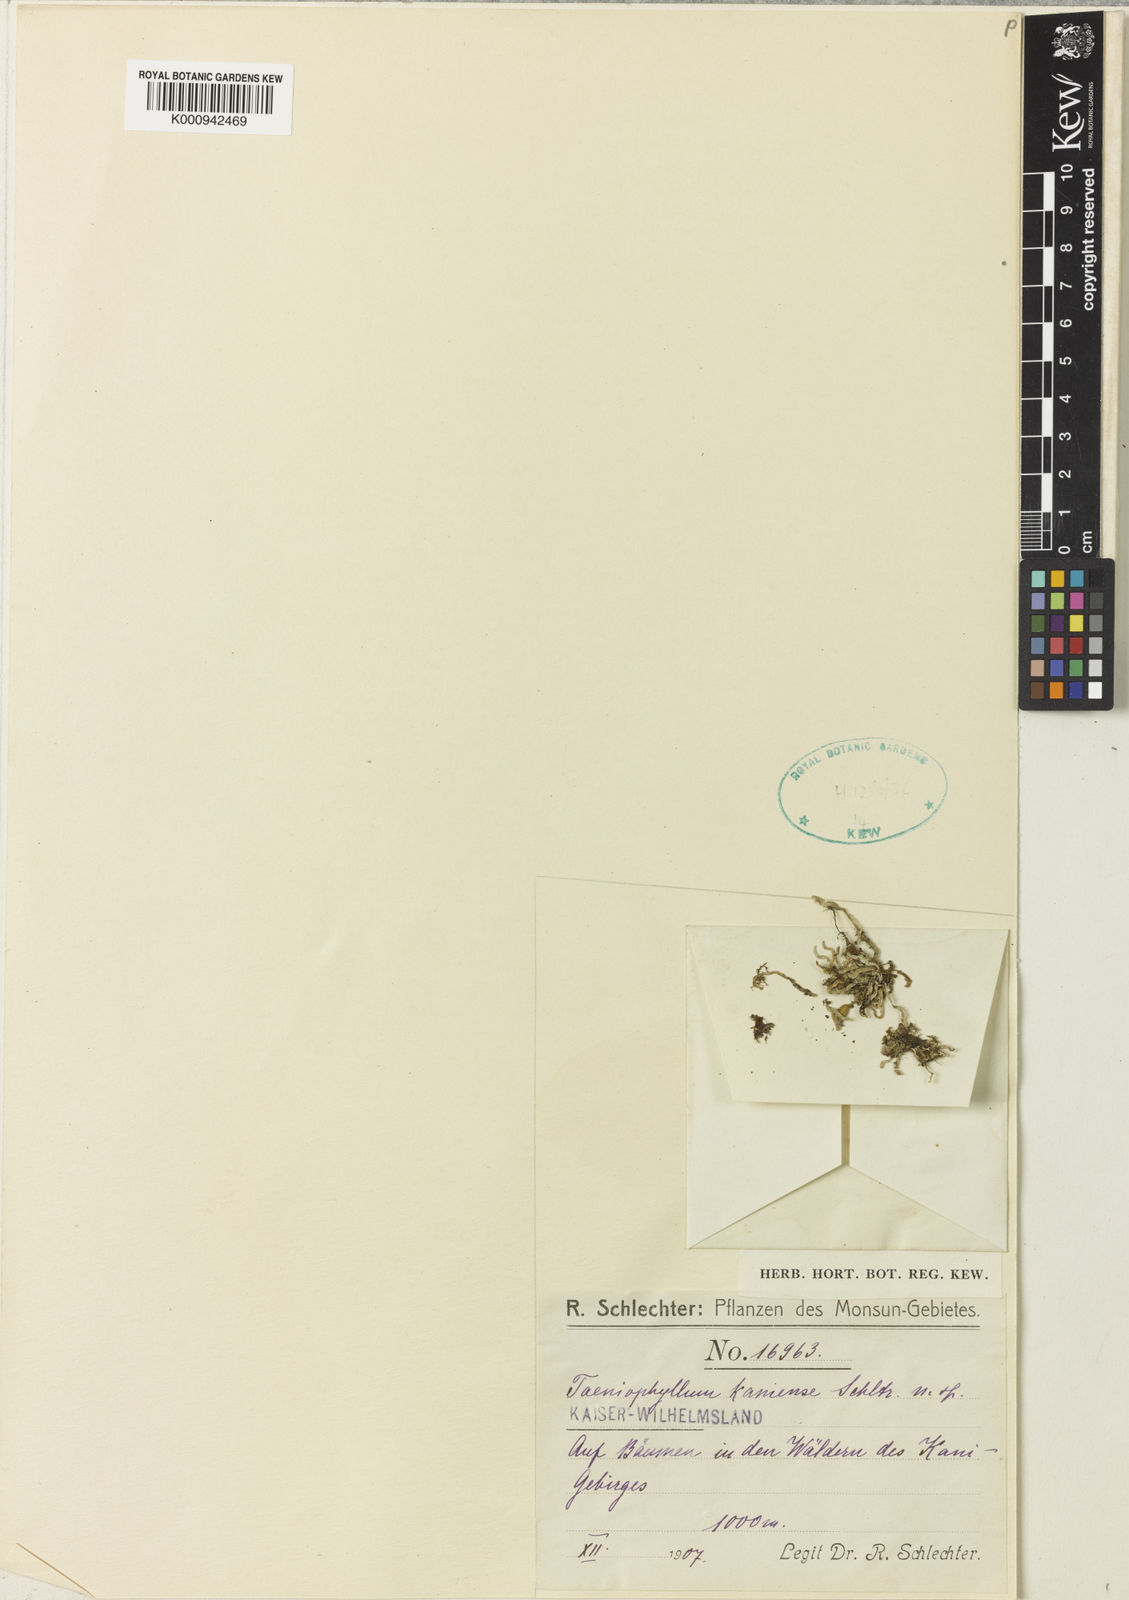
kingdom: Plantae
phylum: Tracheophyta
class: Liliopsida
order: Asparagales
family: Orchidaceae
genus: Taeniophyllum
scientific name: Taeniophyllum kaniense
